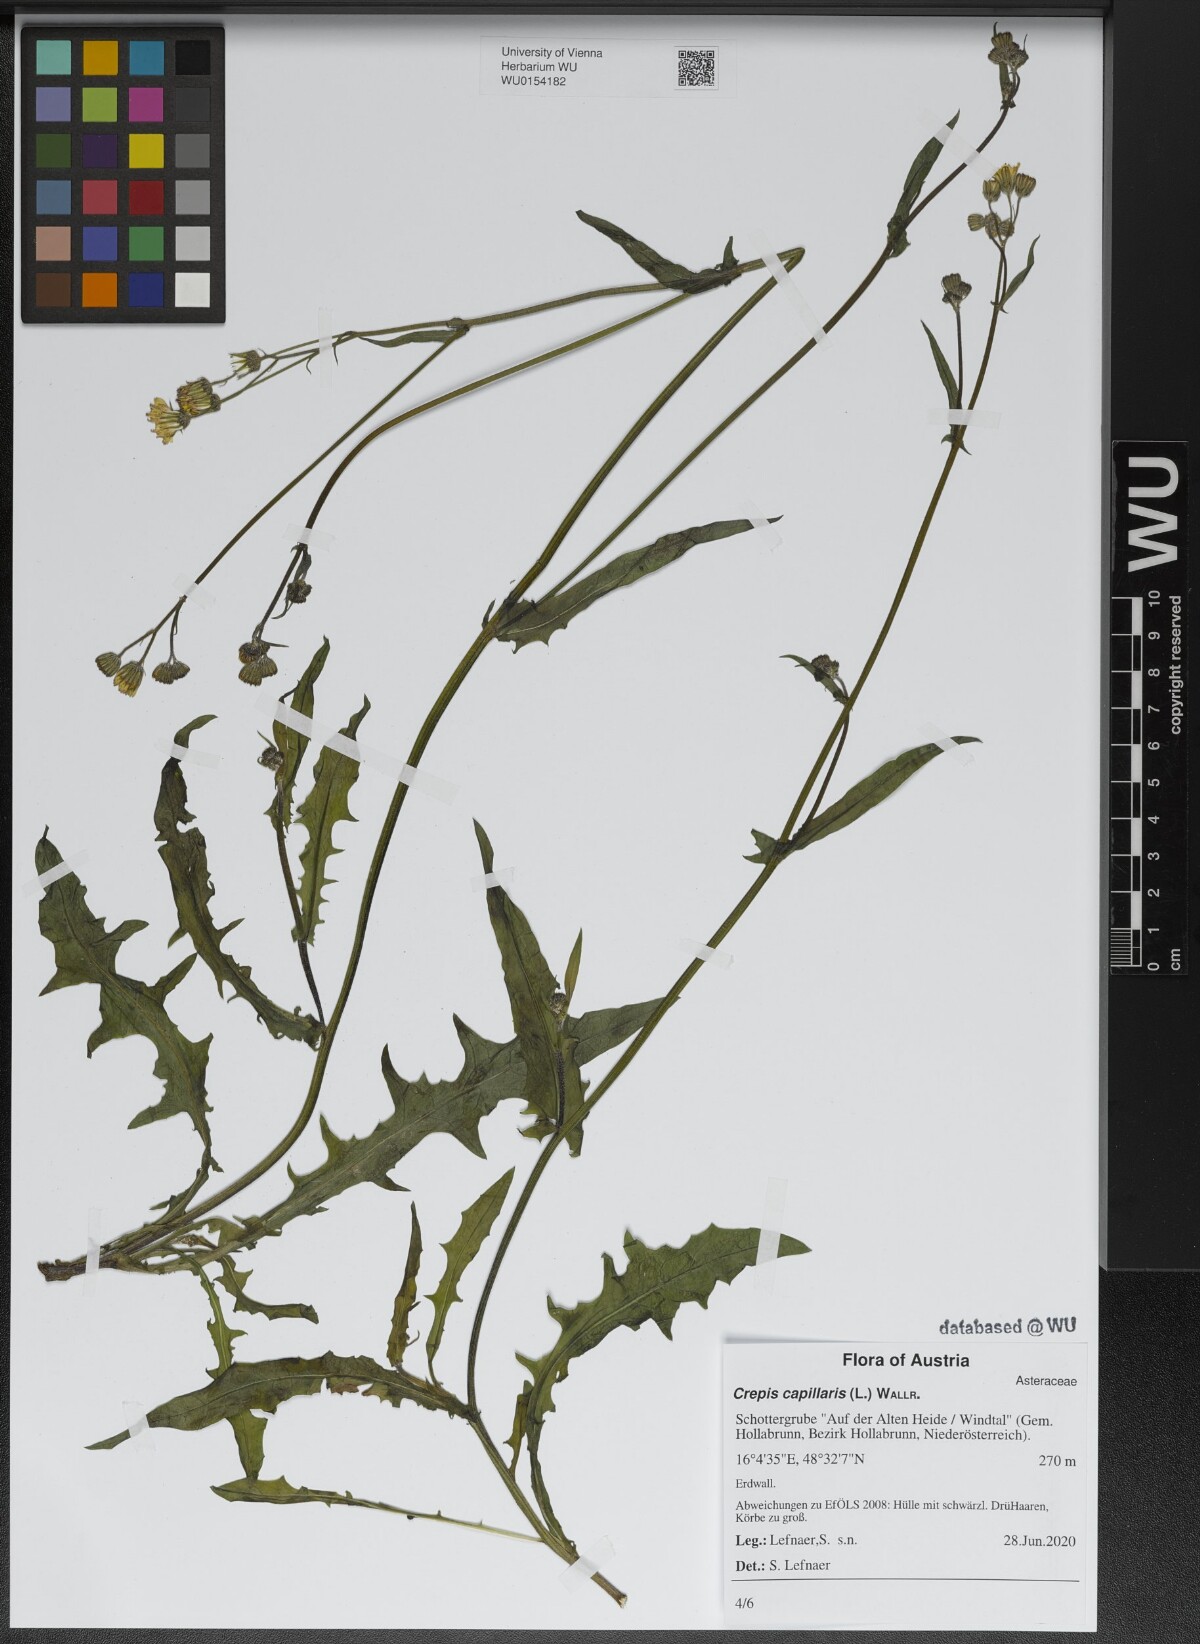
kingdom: Plantae
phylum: Tracheophyta
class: Magnoliopsida
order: Asterales
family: Asteraceae
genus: Crepis
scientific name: Crepis capillaris
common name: Smooth hawksbeard
